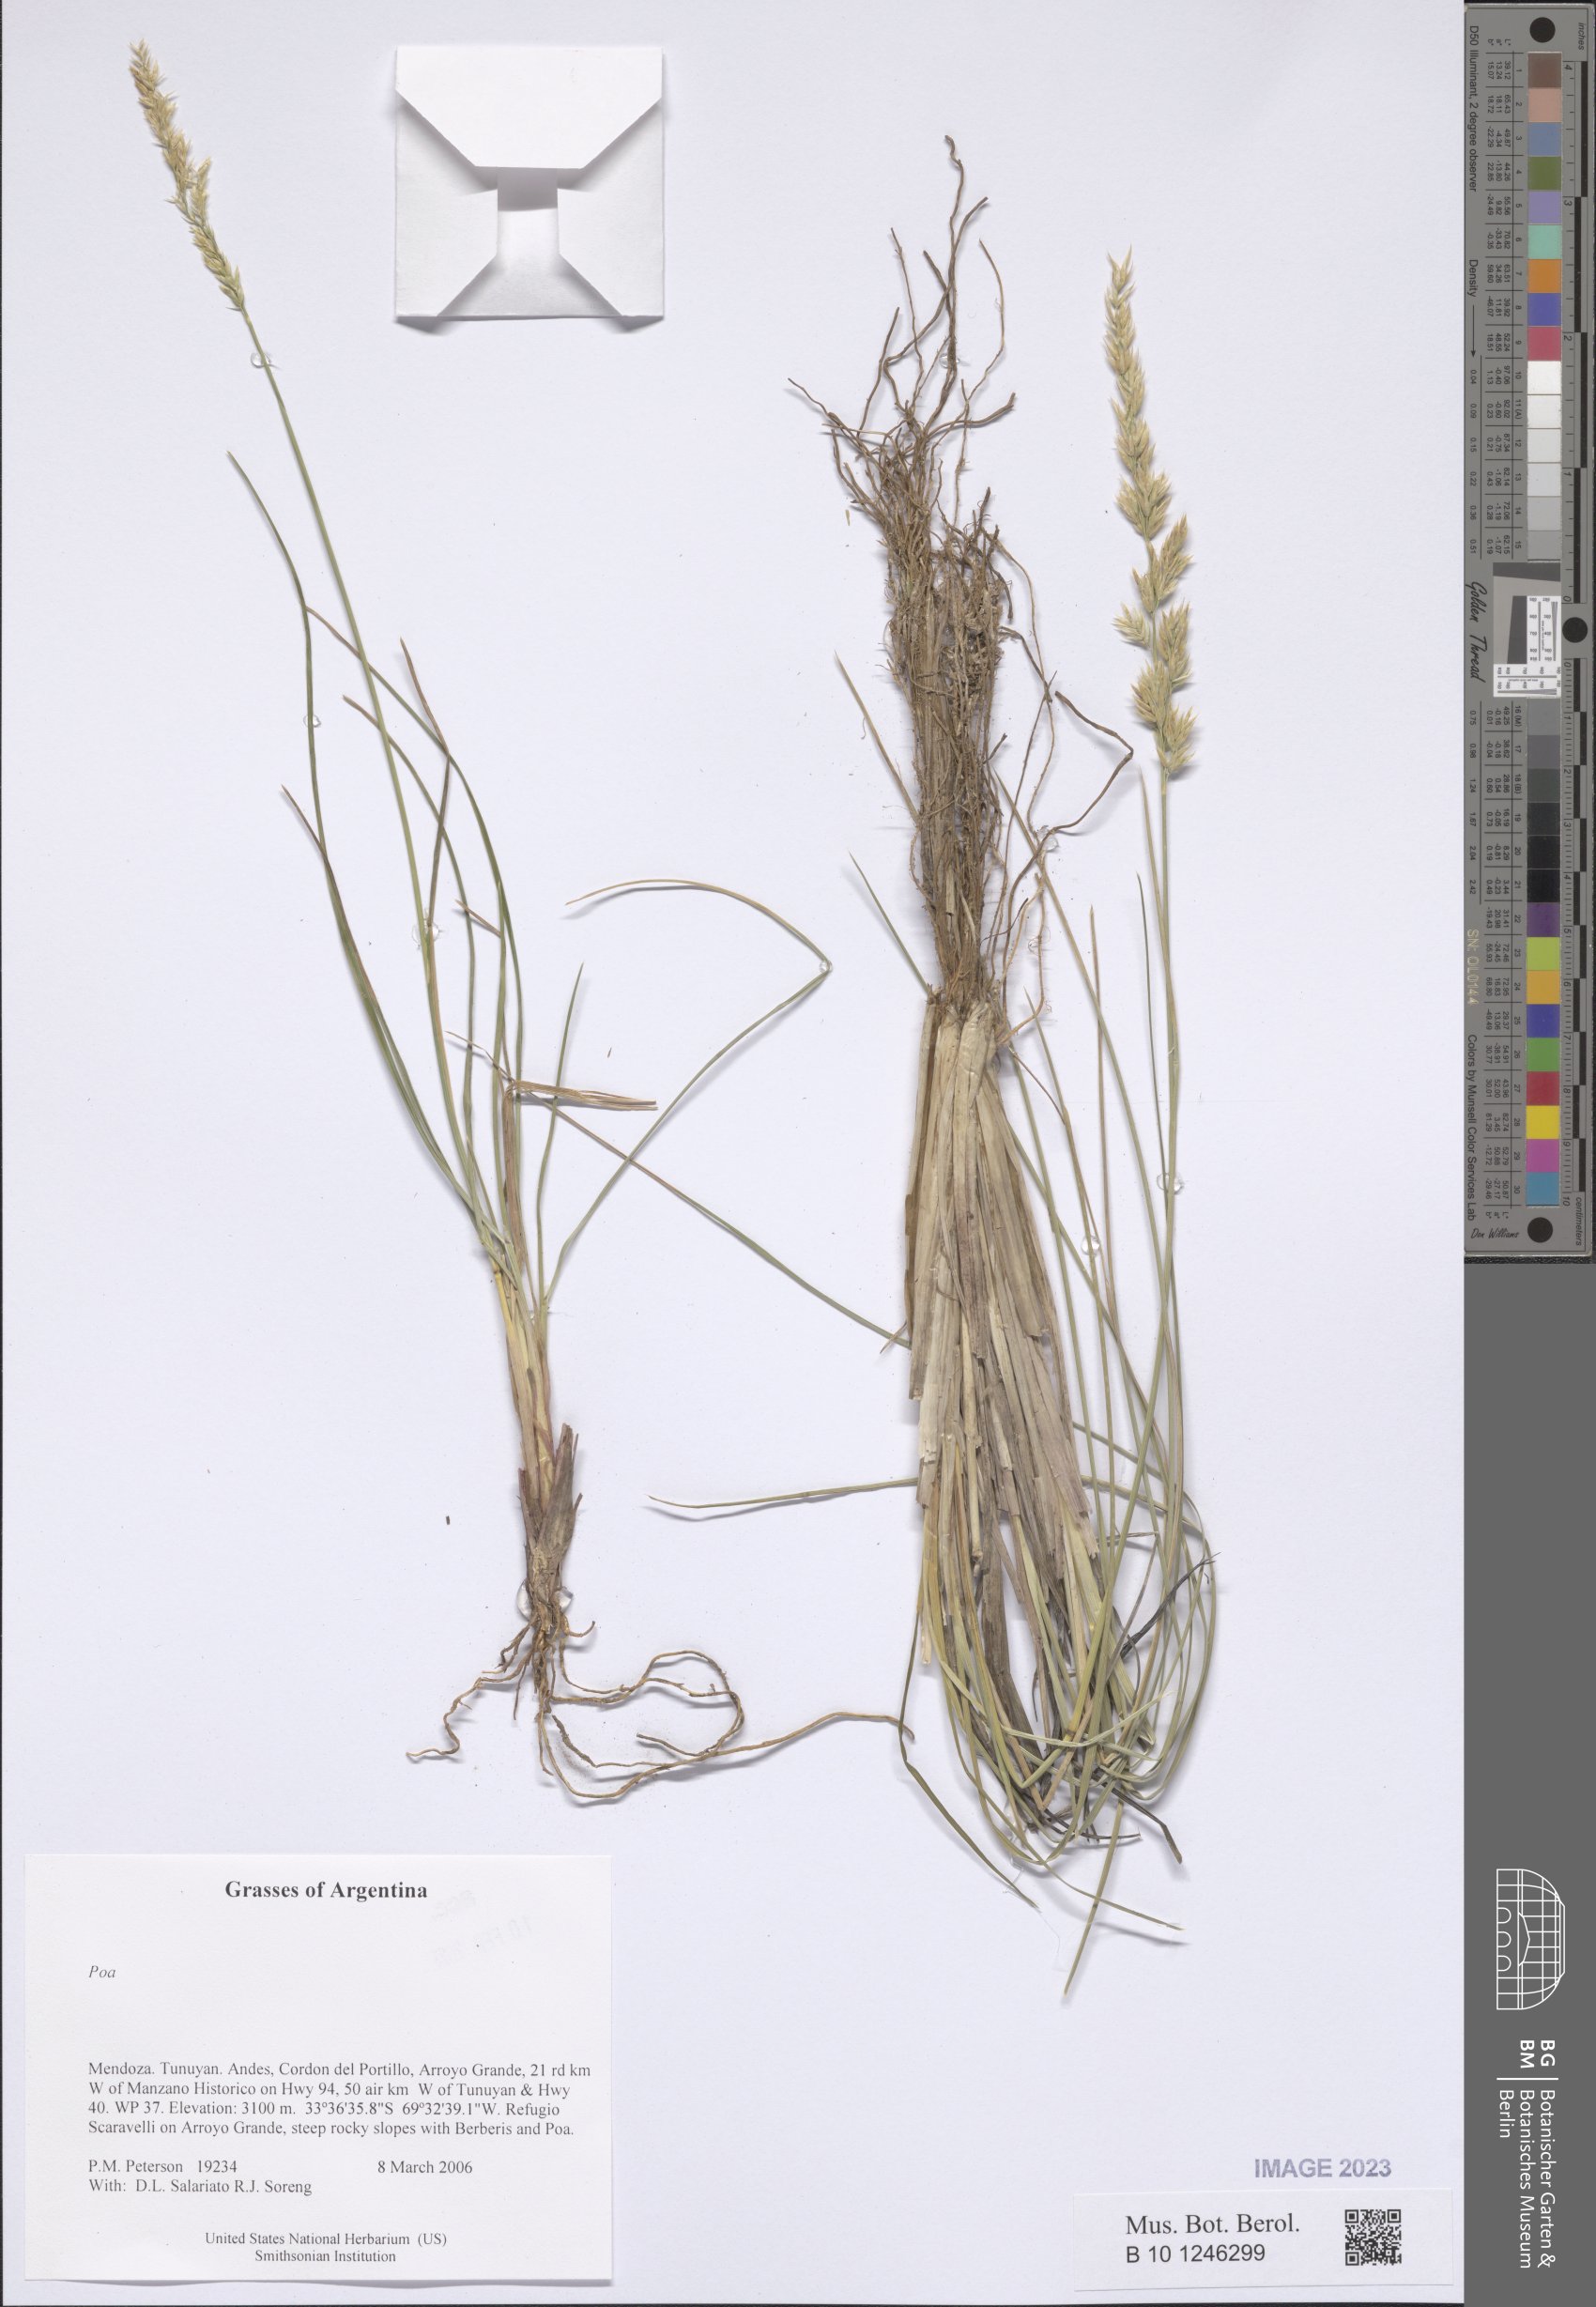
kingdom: Plantae
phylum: Tracheophyta
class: Liliopsida
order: Poales
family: Poaceae
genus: Poa
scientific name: Poa
